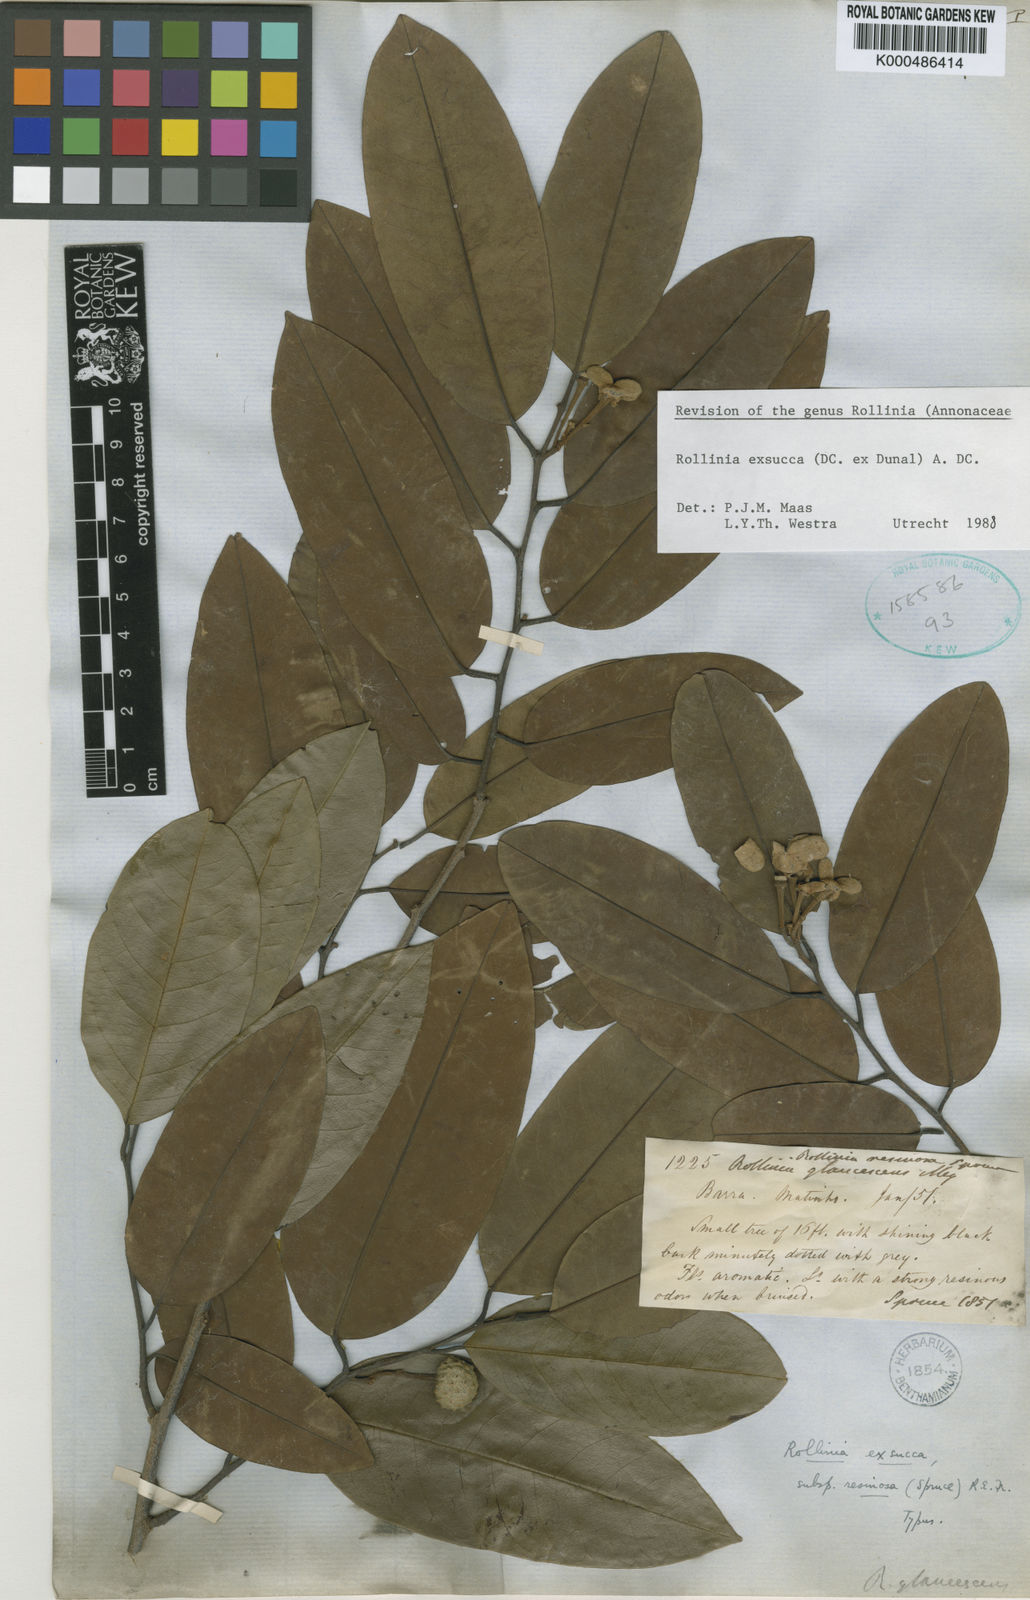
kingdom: Plantae
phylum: Tracheophyta
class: Magnoliopsida
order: Magnoliales
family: Annonaceae
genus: Annona
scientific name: Annona
